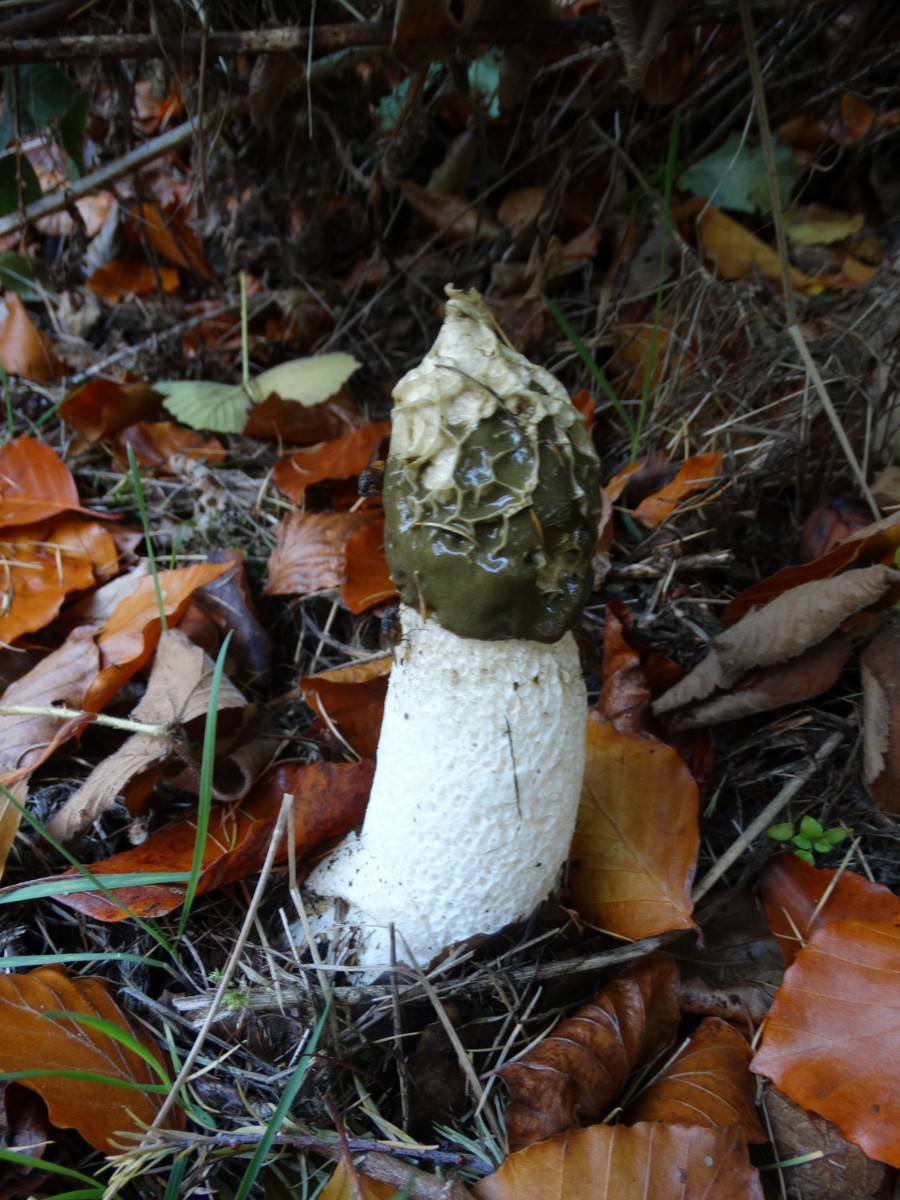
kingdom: Fungi
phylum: Basidiomycota
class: Agaricomycetes
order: Phallales
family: Phallaceae
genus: Phallus
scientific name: Phallus impudicus
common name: almindelig stinksvamp
